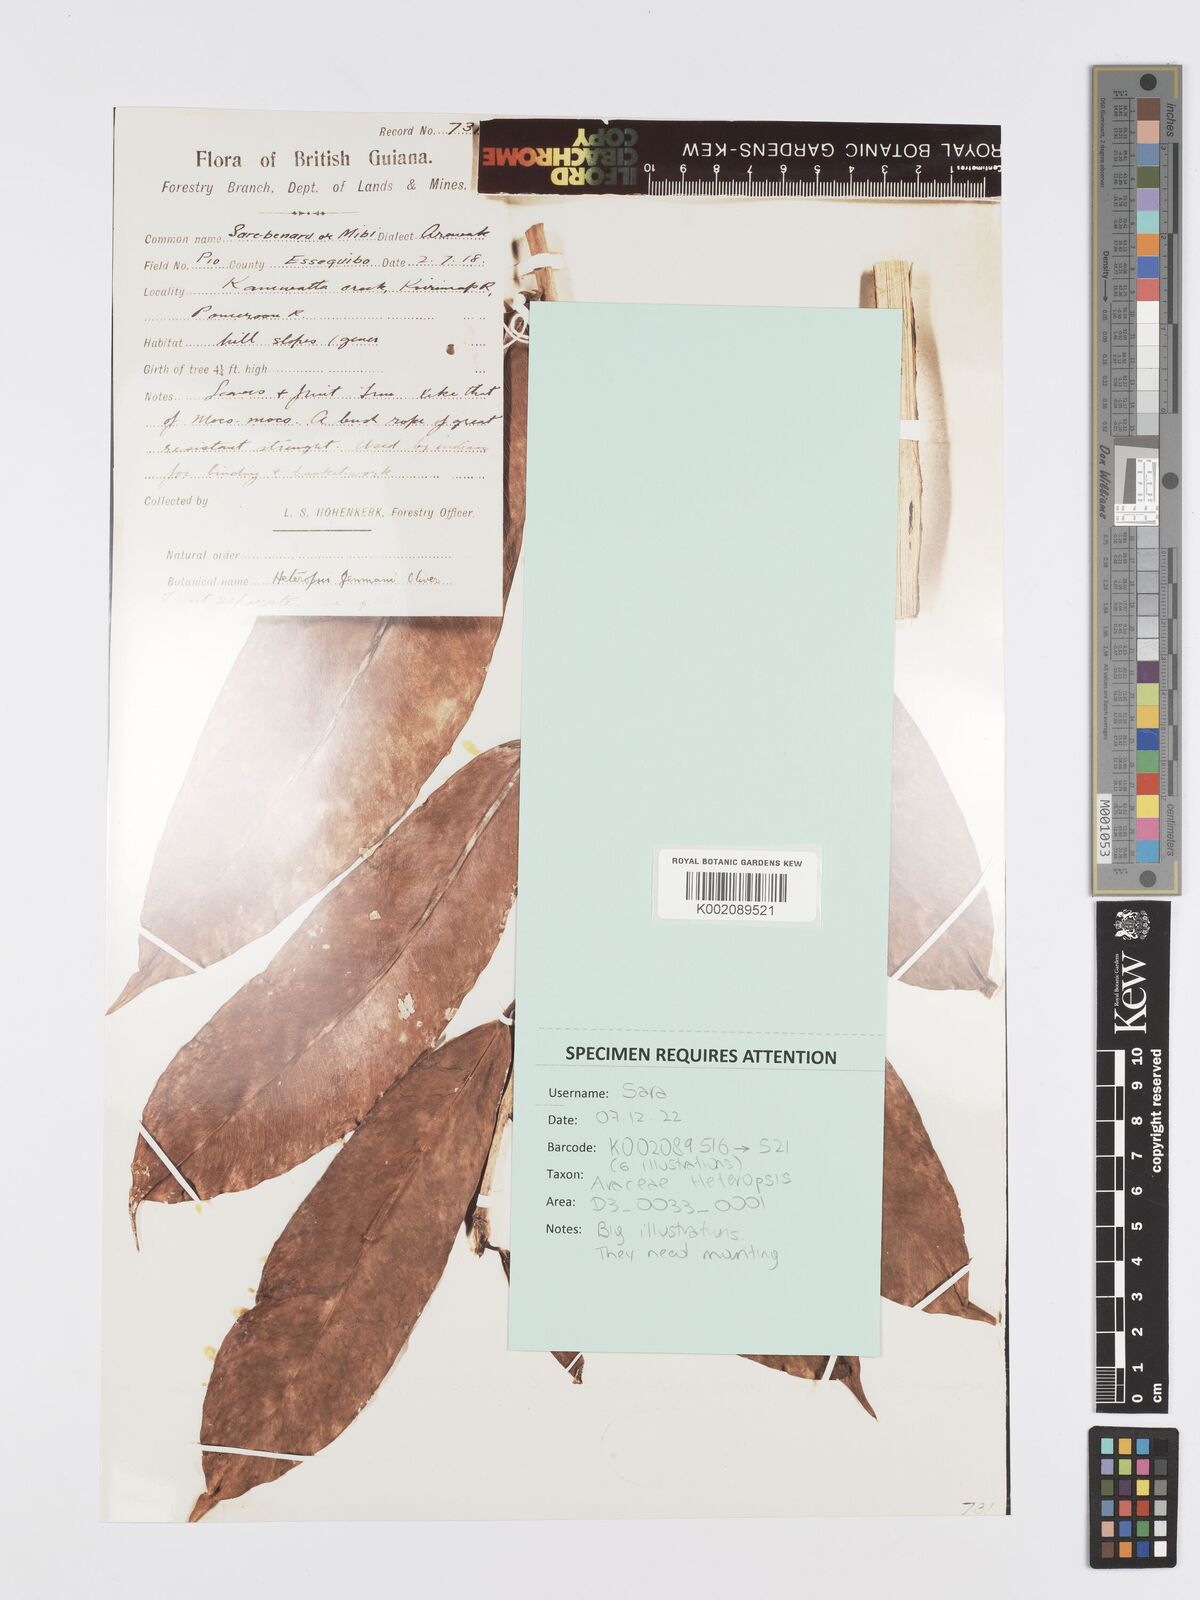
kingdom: Plantae
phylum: Tracheophyta
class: Liliopsida
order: Alismatales
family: Araceae
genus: Heteropsis
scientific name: Heteropsis flexuosa
